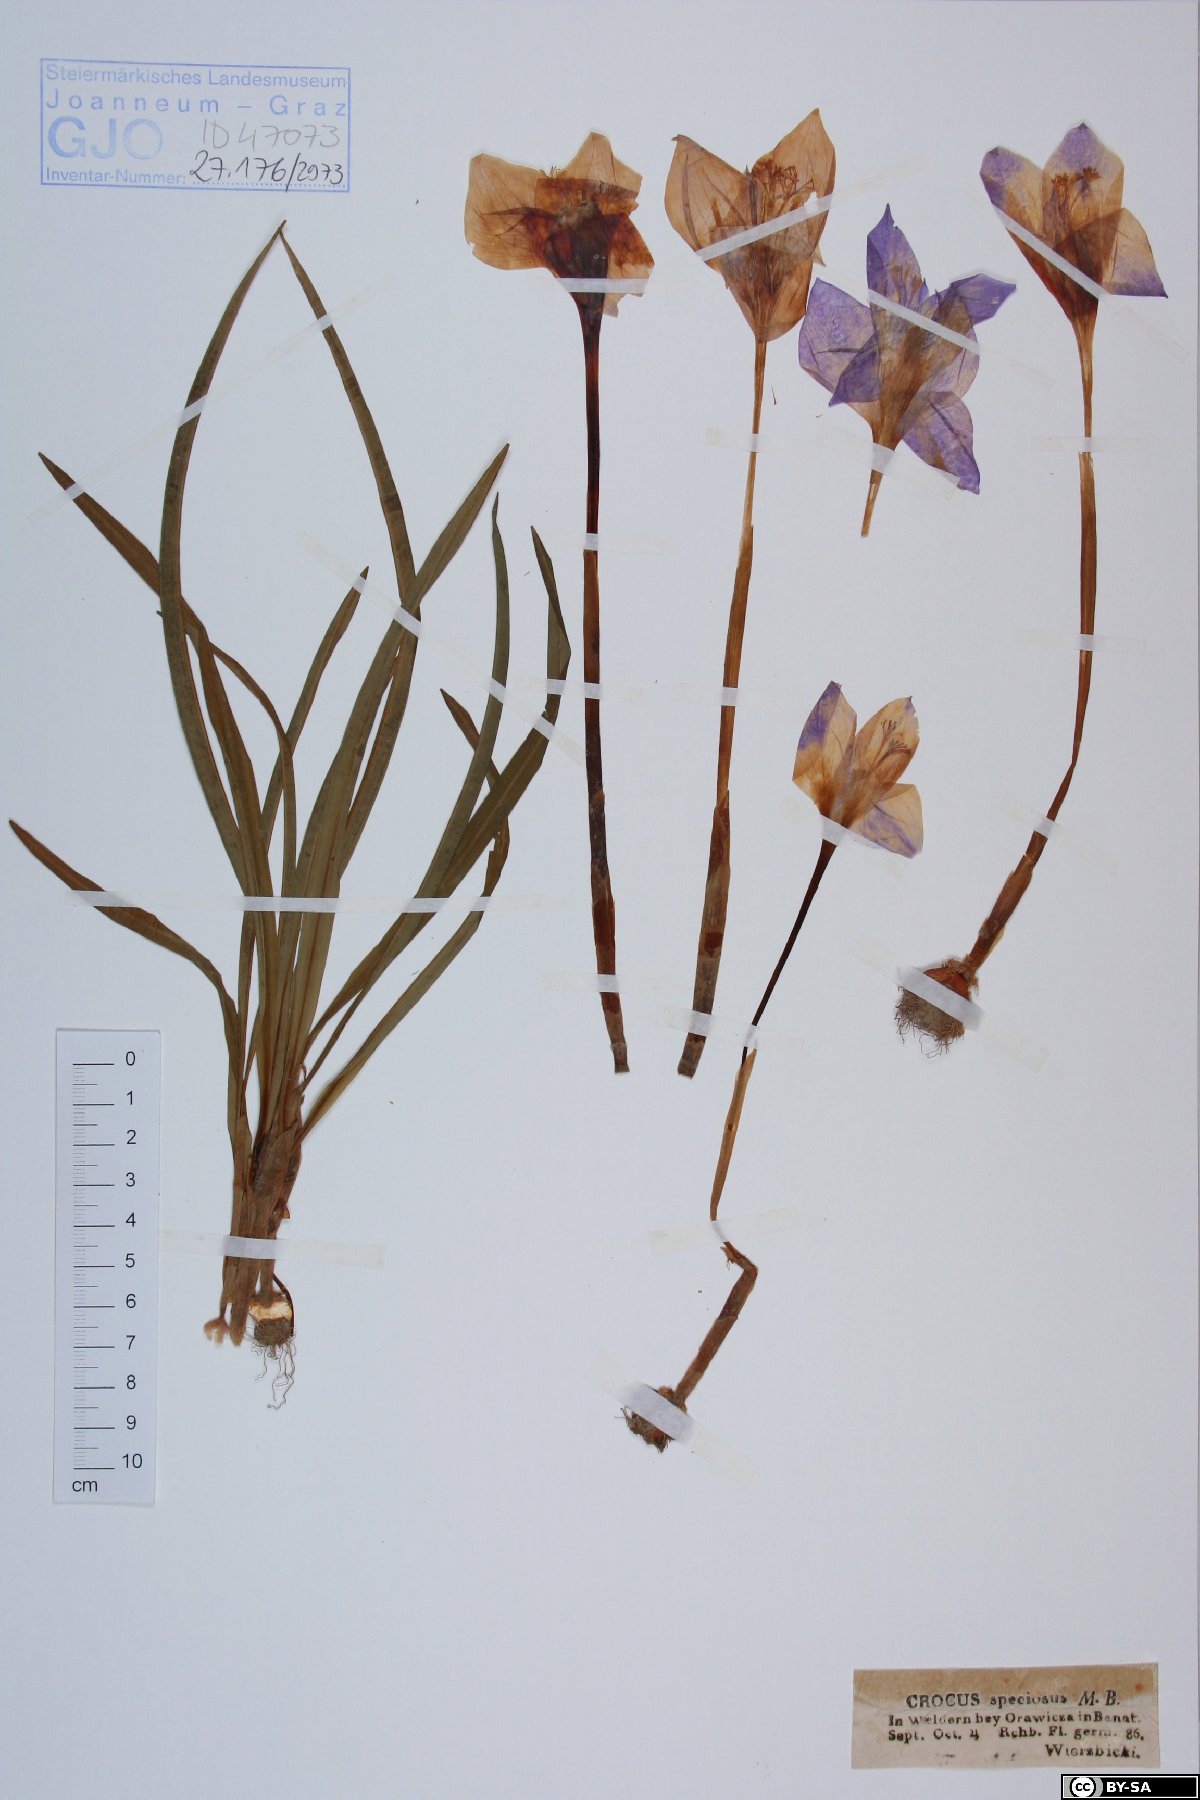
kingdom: Plantae
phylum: Tracheophyta
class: Liliopsida
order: Asparagales
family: Iridaceae
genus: Crocus
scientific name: Crocus speciosus
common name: Bieberstein's crocus
